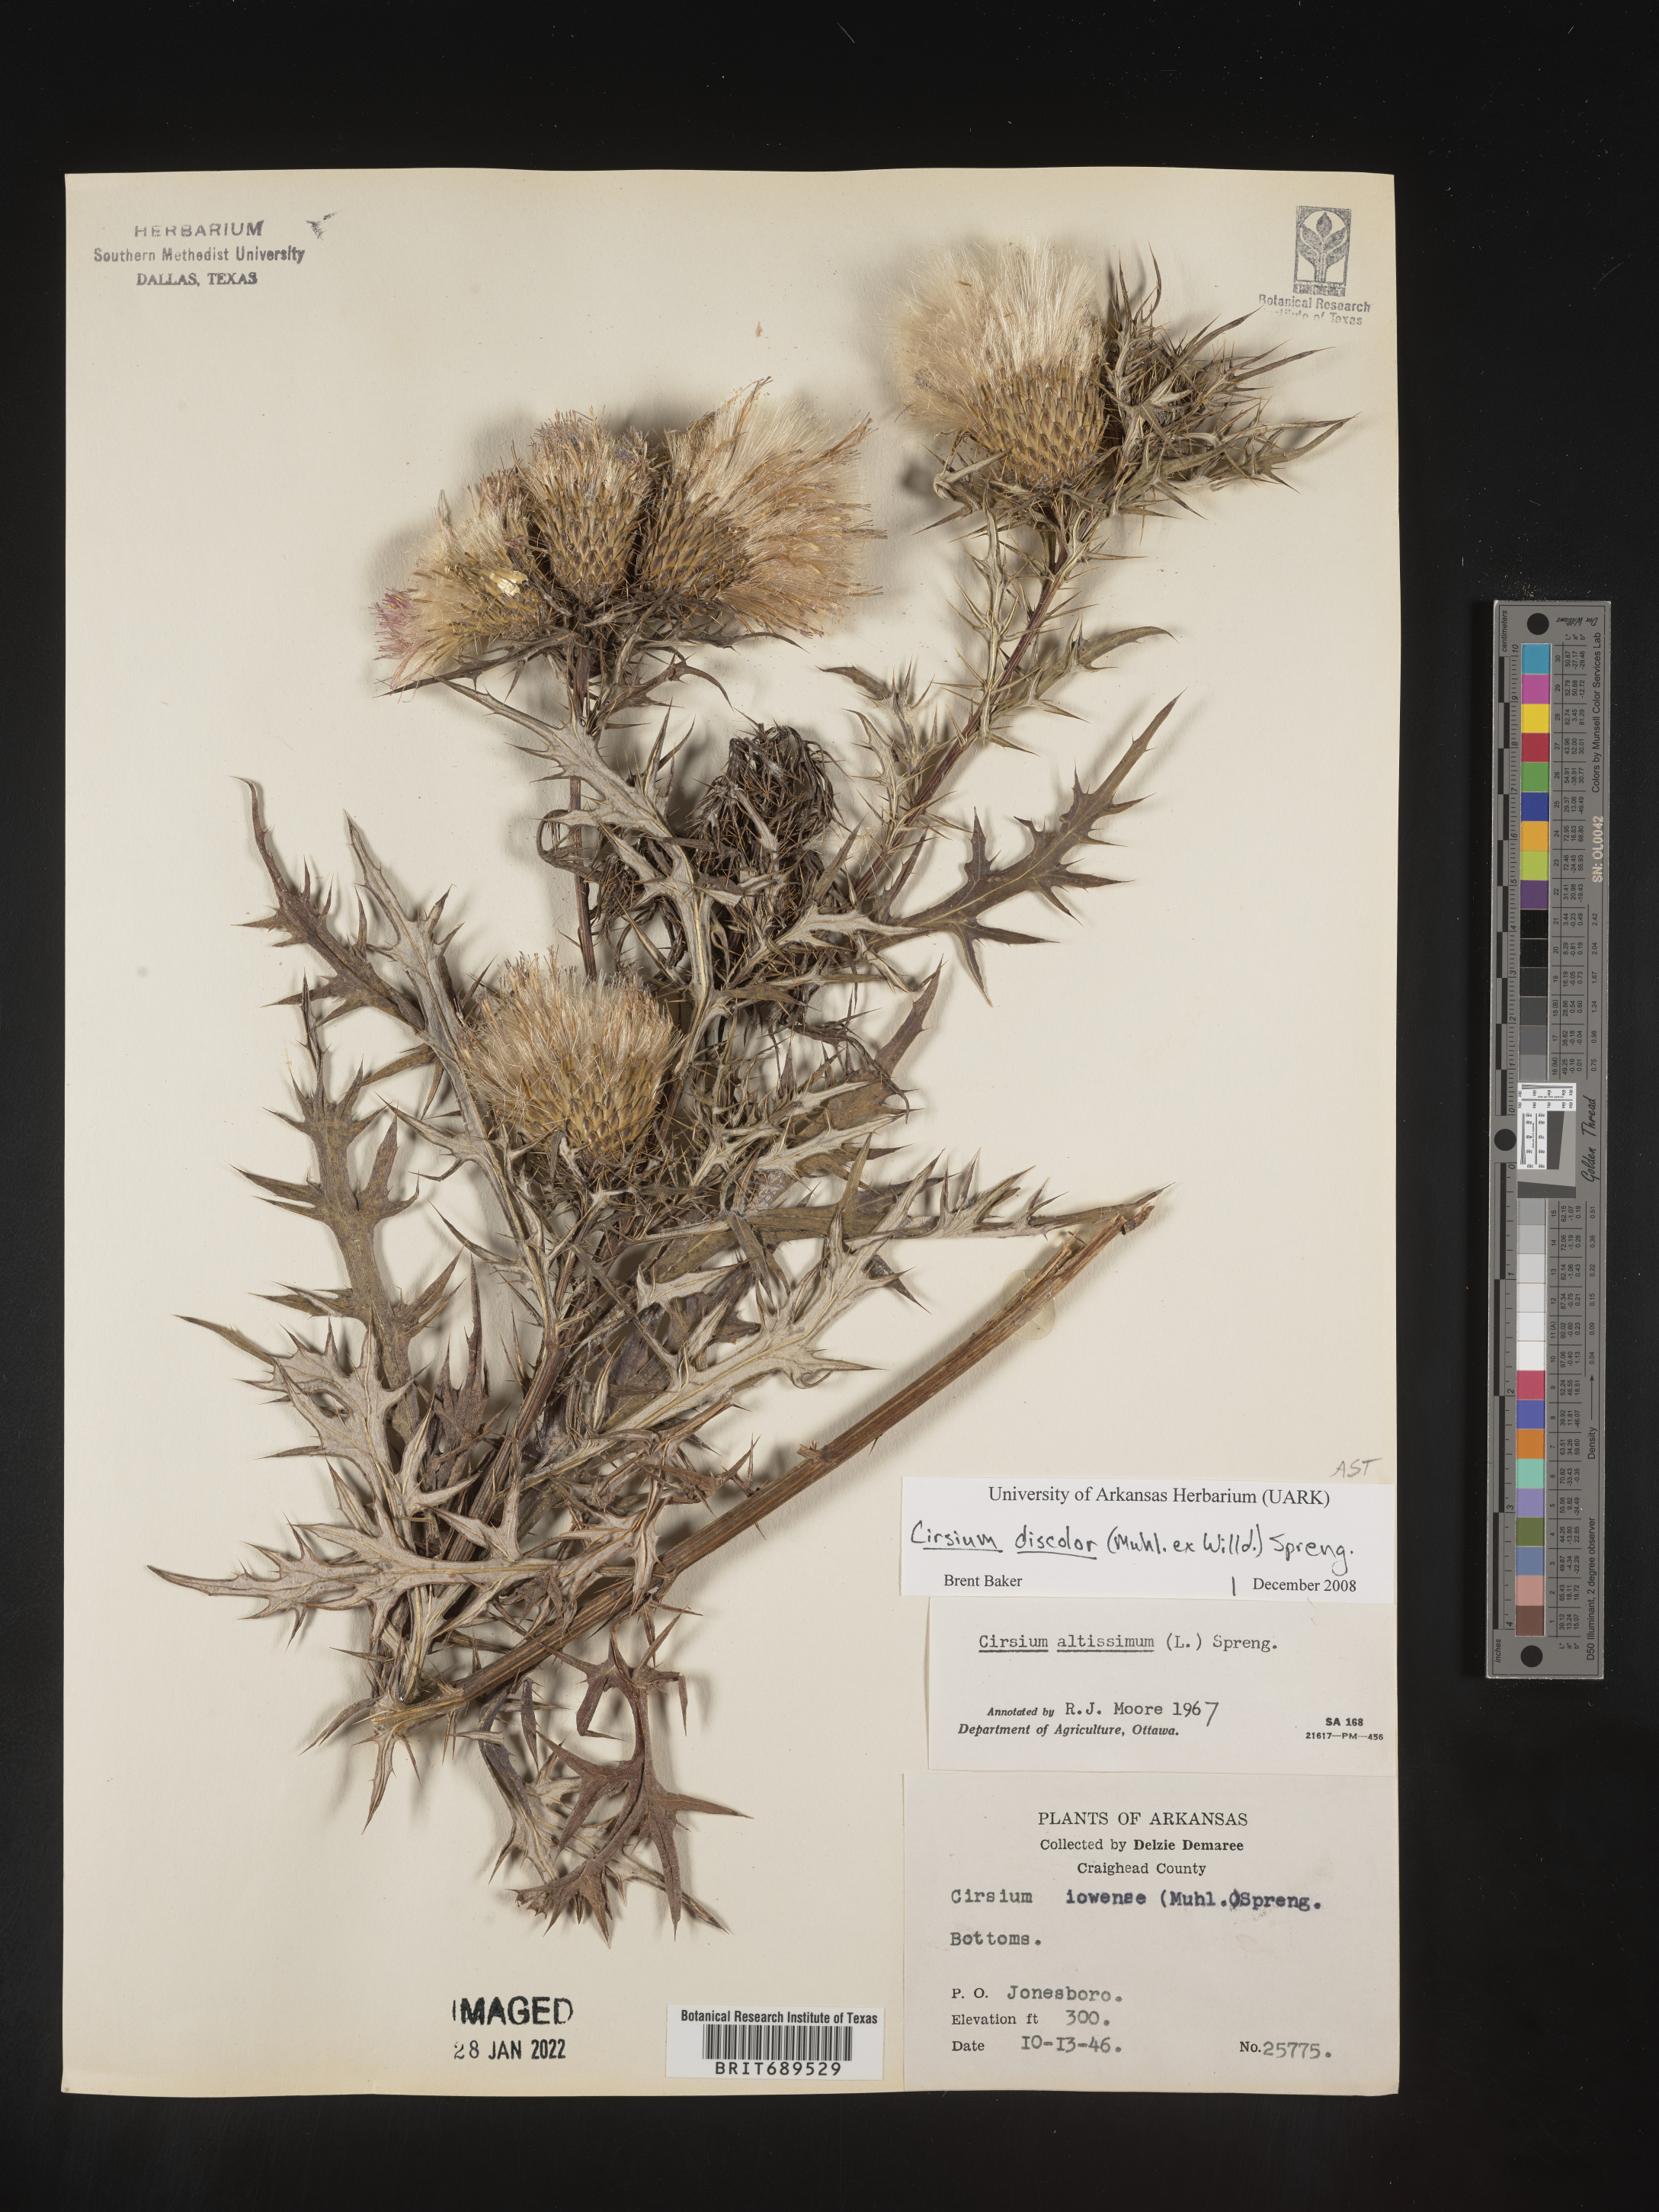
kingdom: Plantae
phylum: Tracheophyta
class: Magnoliopsida
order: Asterales
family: Asteraceae
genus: Cirsium
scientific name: Cirsium discolor
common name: Field thistle
